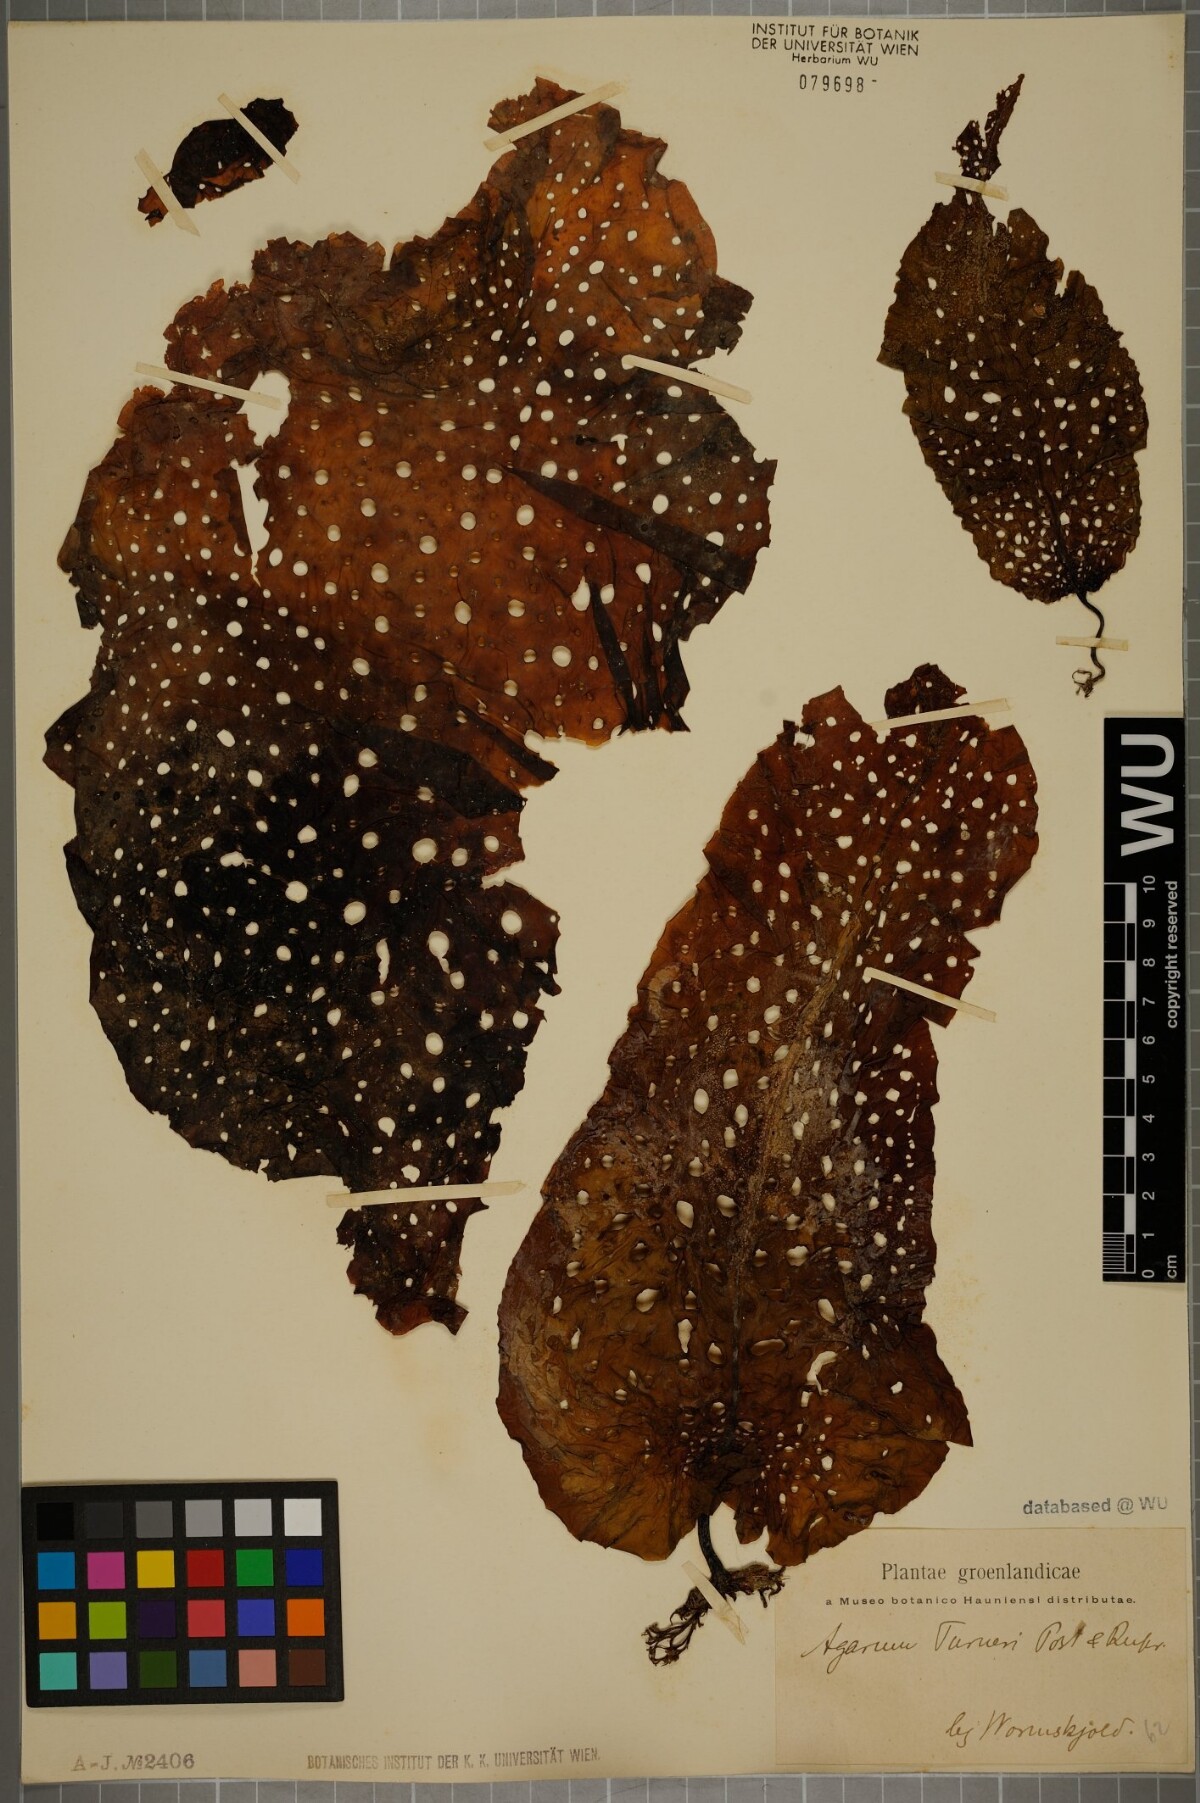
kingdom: Chromista
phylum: Ochrophyta
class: Phaeophyceae
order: Laminariales
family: Costariaceae
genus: Agarum
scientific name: Agarum turneri
